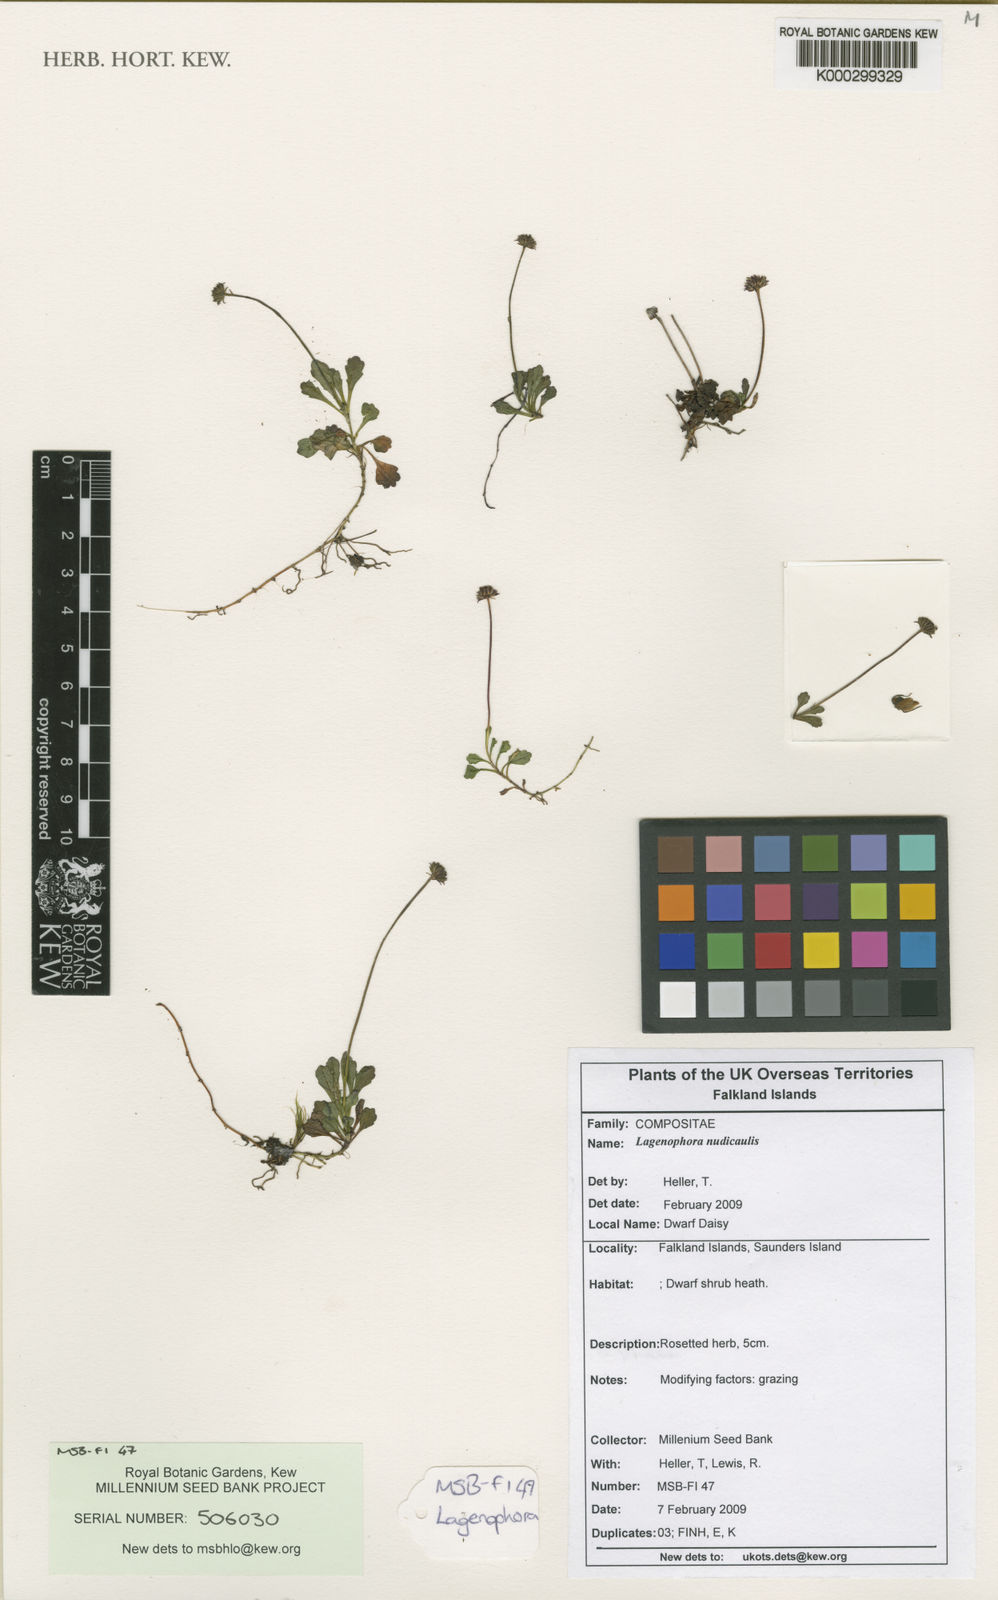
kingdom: Plantae
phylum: Tracheophyta
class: Magnoliopsida
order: Asterales
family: Asteraceae
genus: Lagenophora
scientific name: Lagenophora nudicaulis
